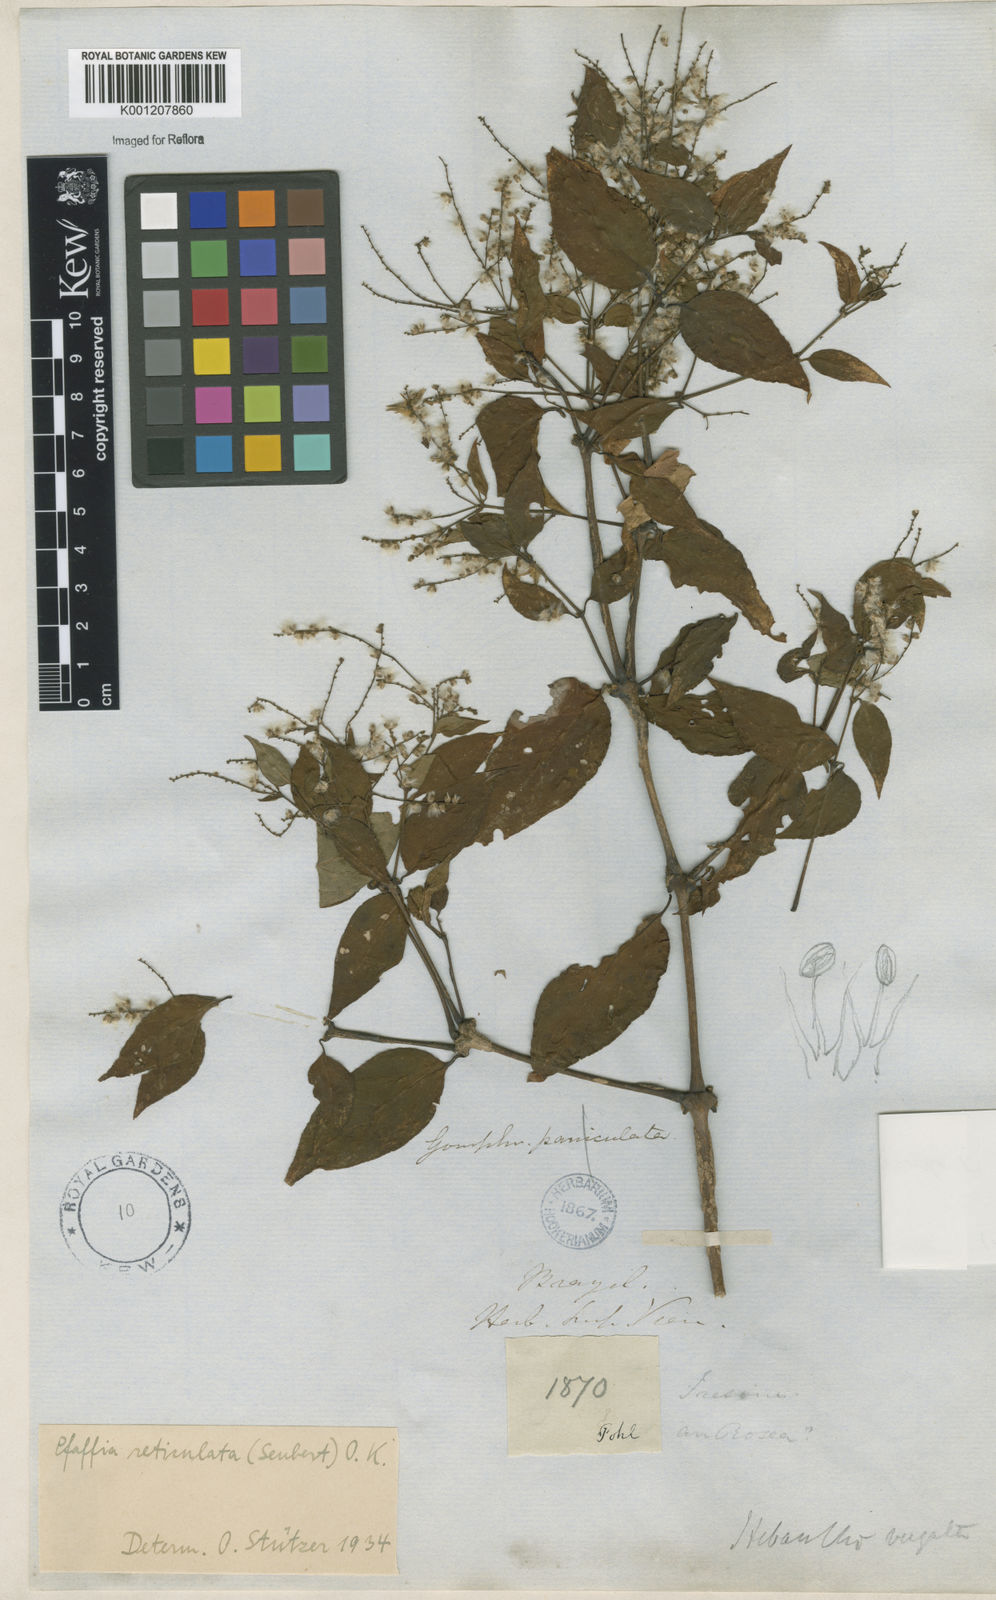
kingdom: Plantae
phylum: Tracheophyta
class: Magnoliopsida
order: Caryophyllales
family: Amaranthaceae
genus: Hebanthe
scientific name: Hebanthe spicata
